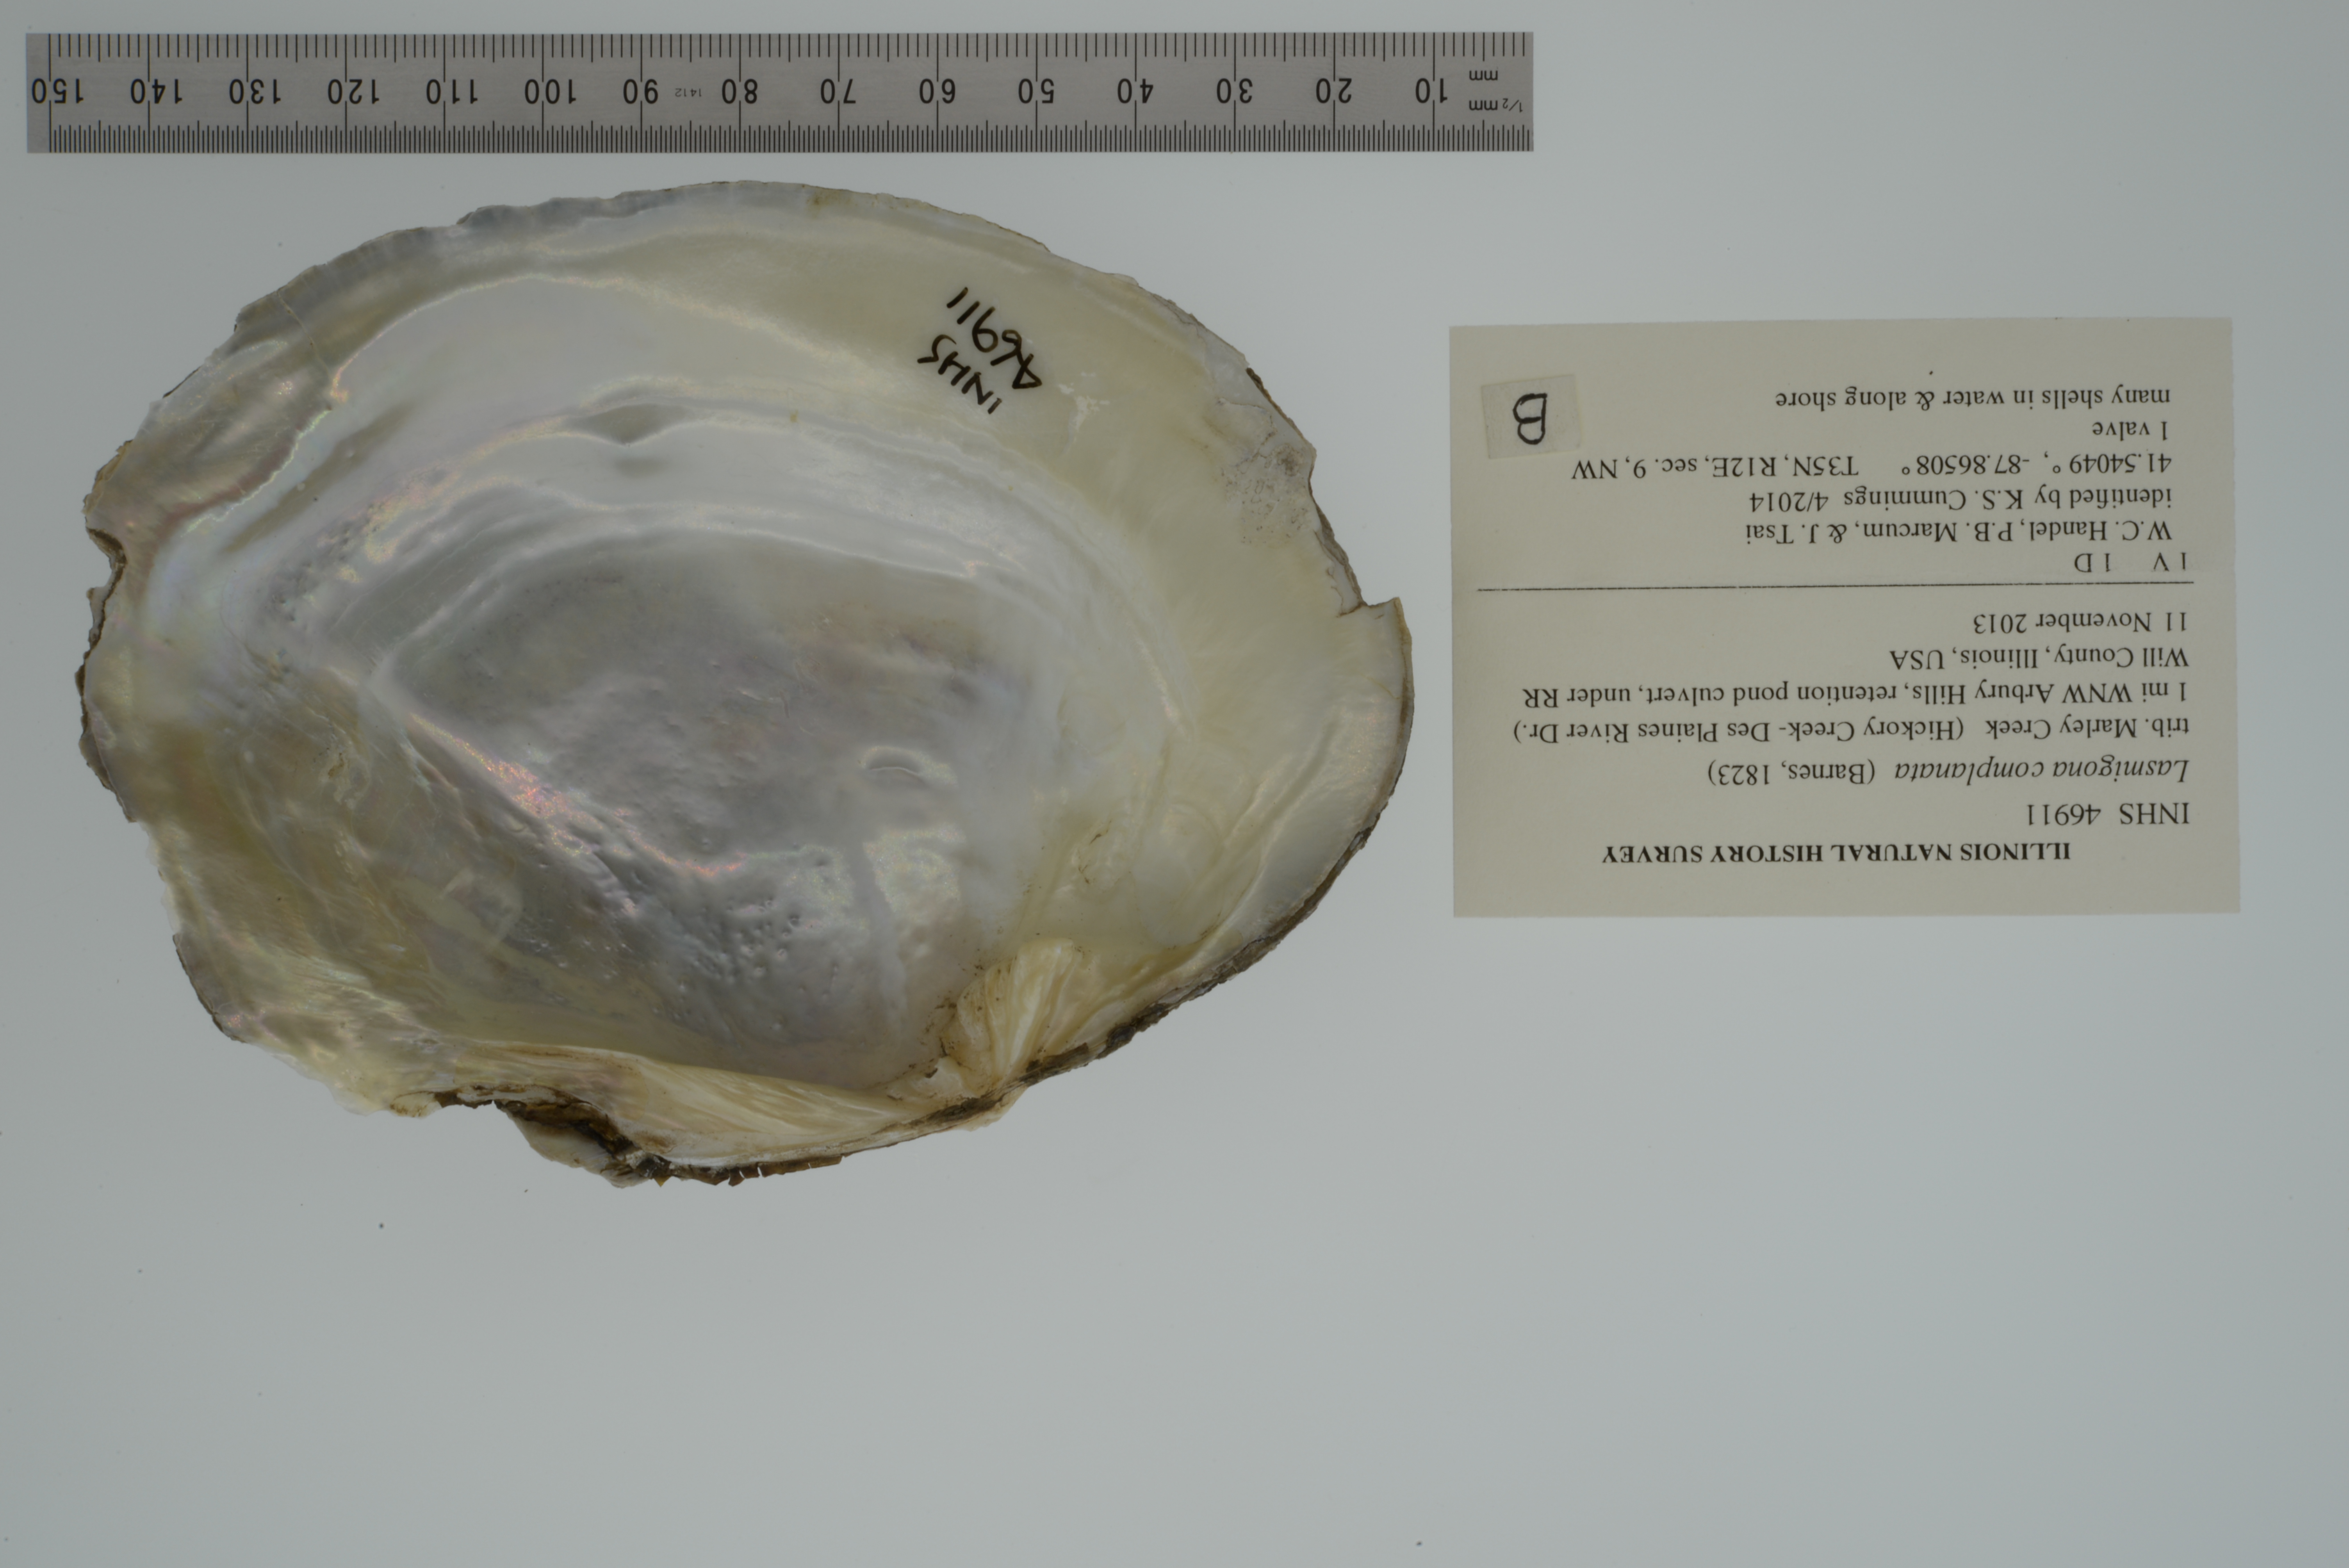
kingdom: Animalia
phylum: Mollusca
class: Bivalvia
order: Unionida
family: Unionidae
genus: Lasmigona
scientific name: Lasmigona complanata
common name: White heelsplitter
